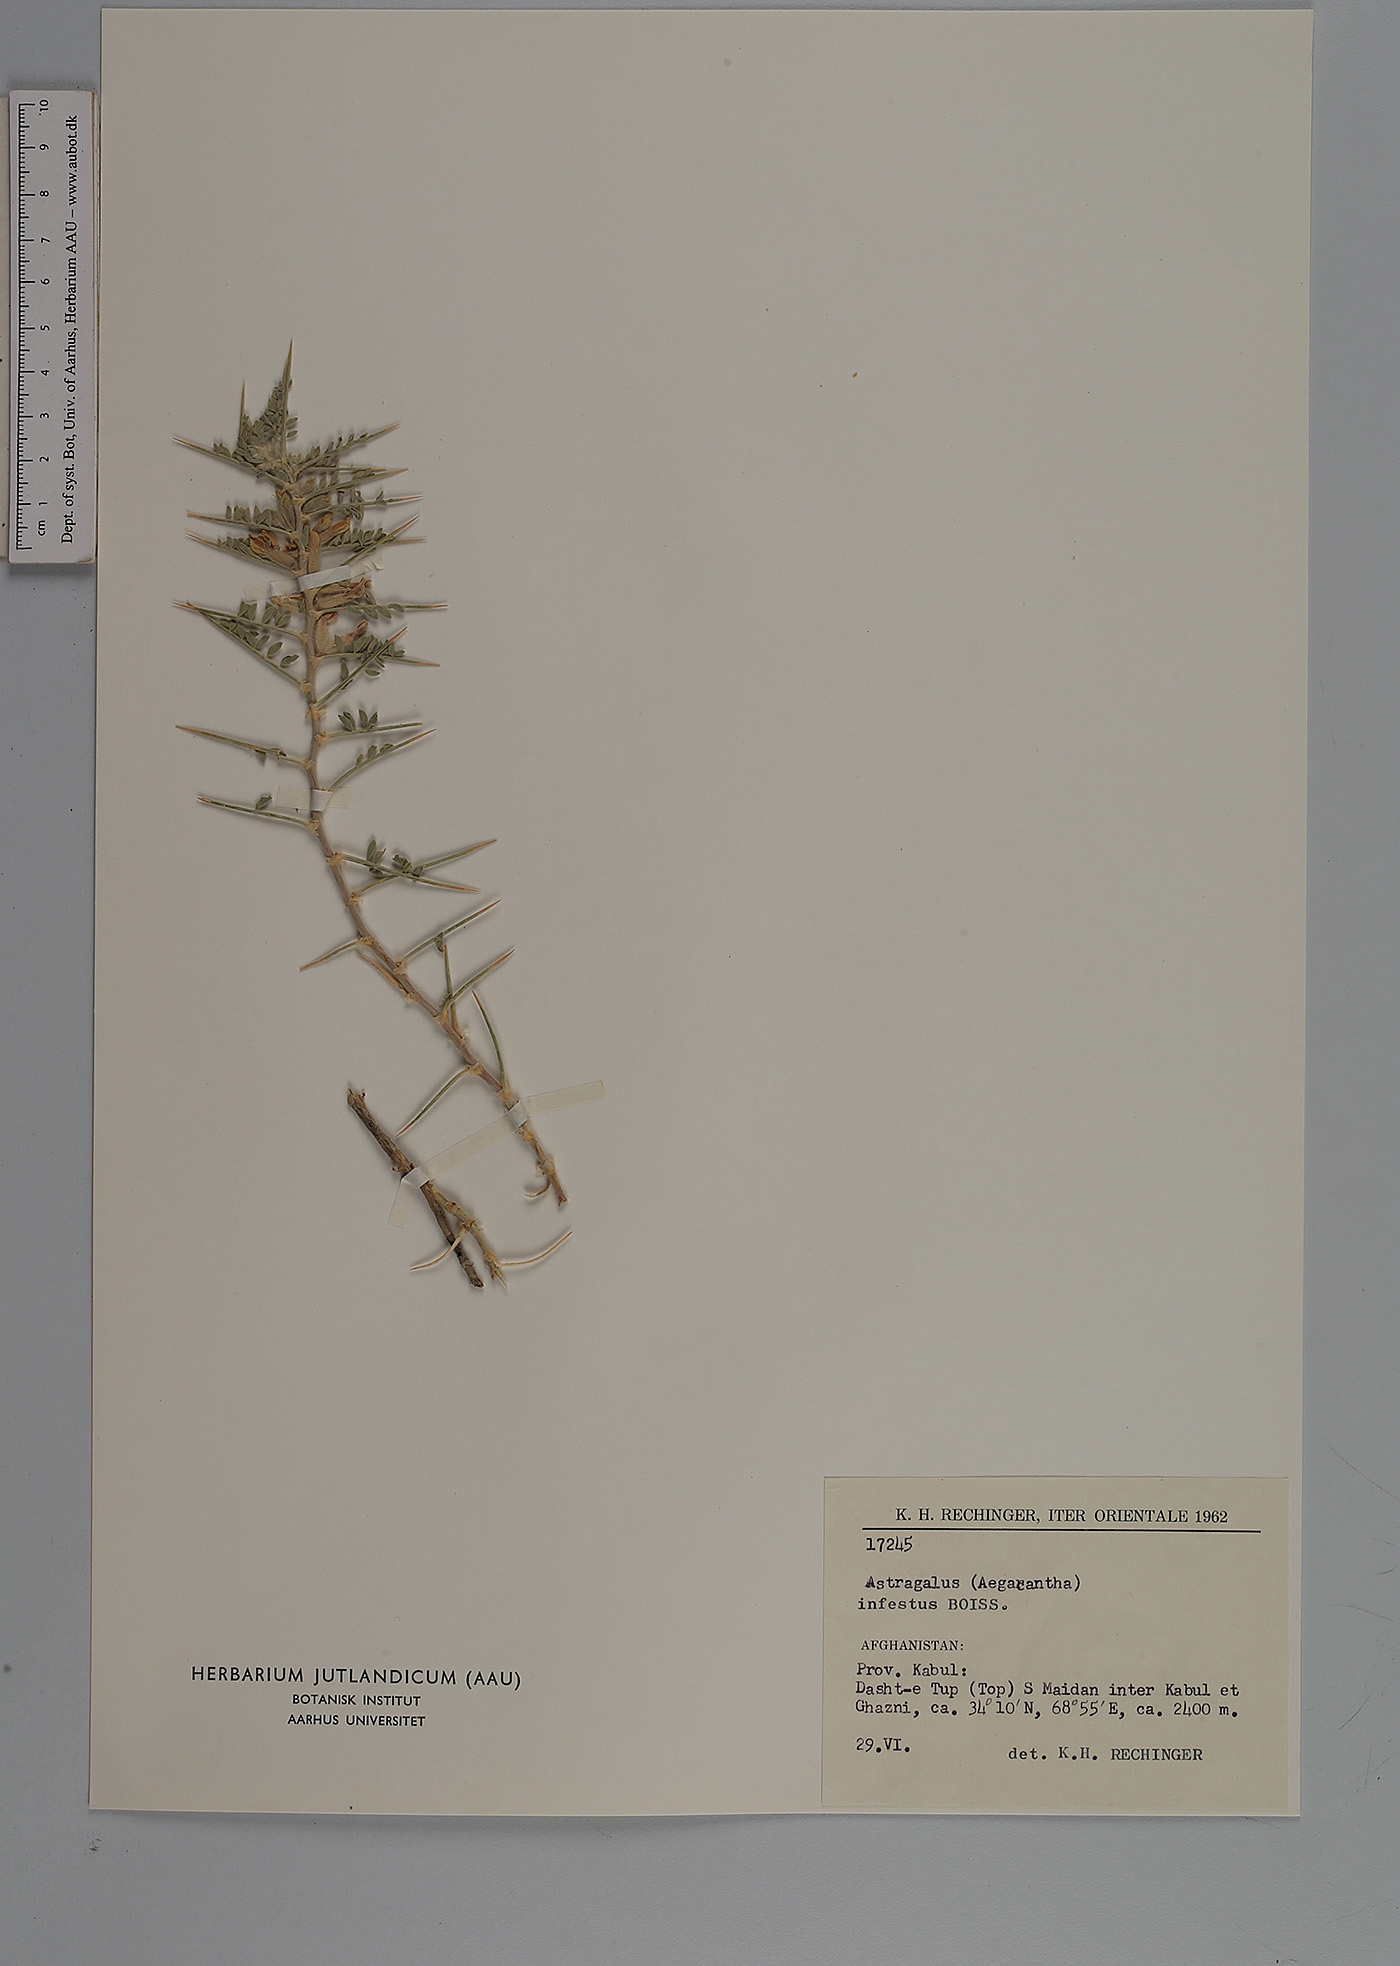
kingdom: Plantae
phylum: Tracheophyta
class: Magnoliopsida
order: Fabales
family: Fabaceae
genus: Astragalus
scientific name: Astragalus infestus
